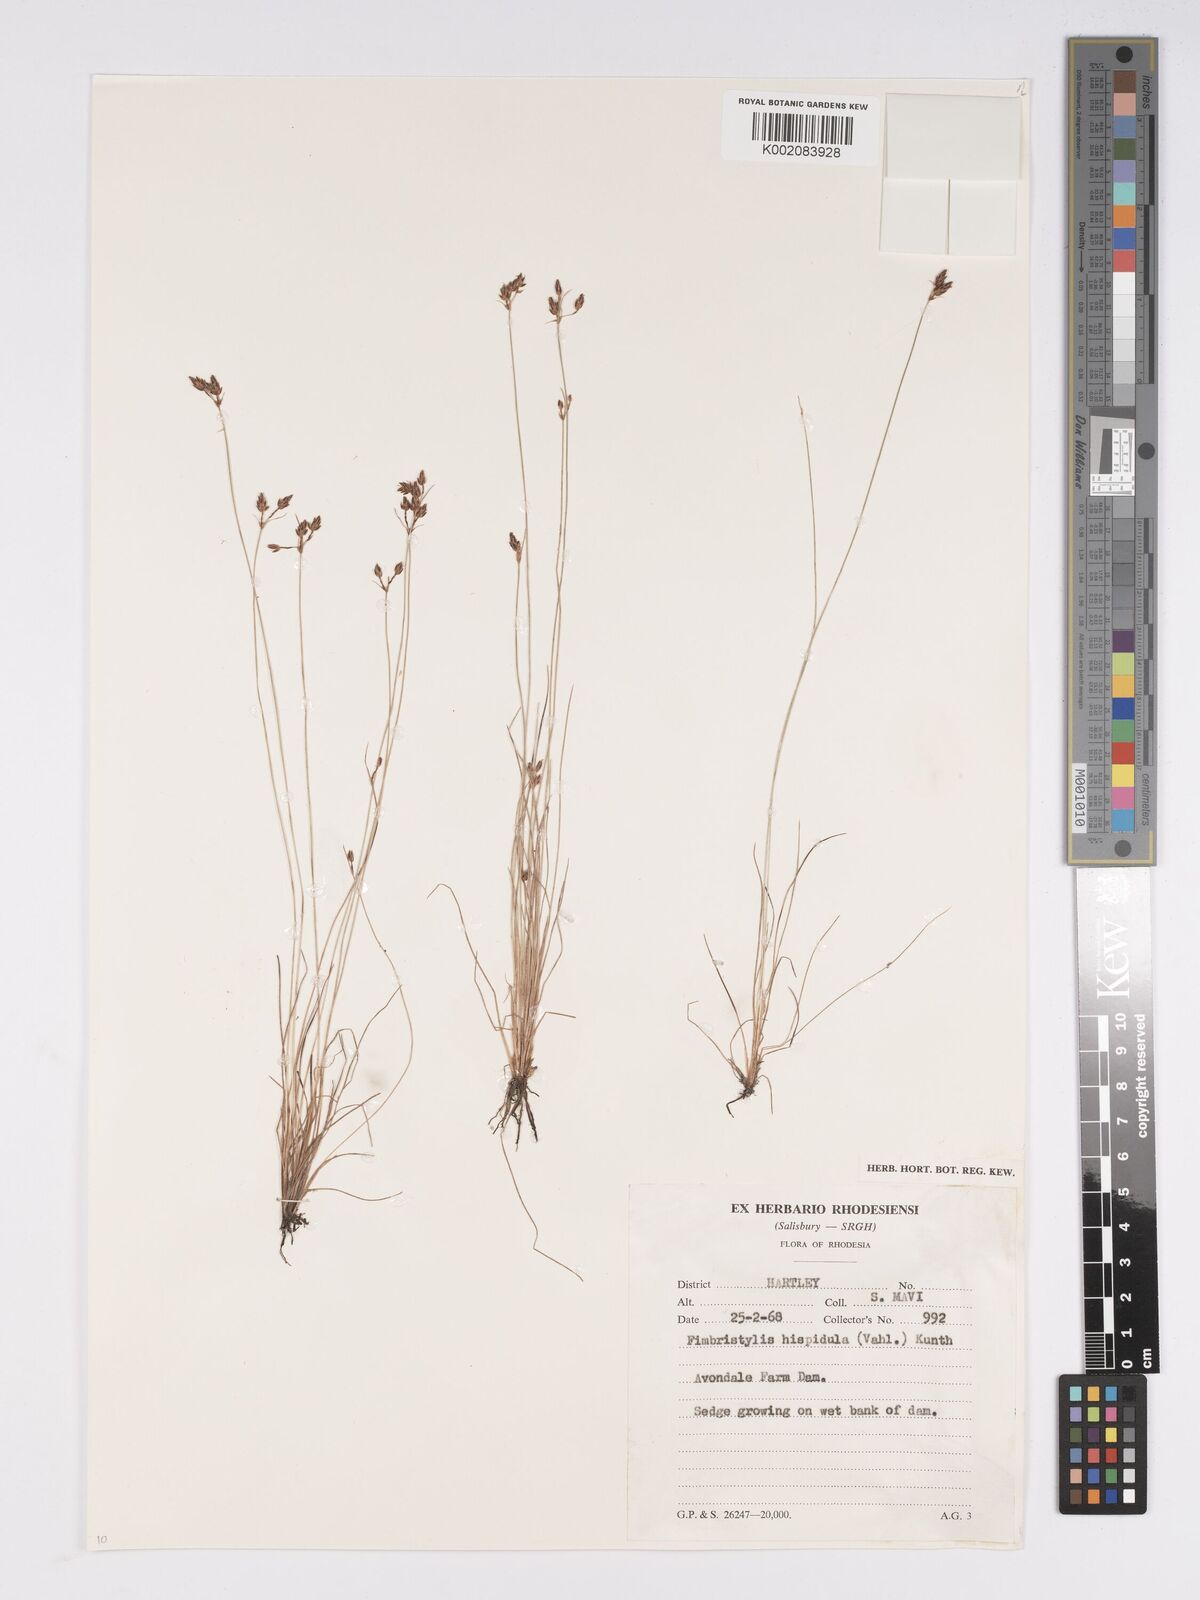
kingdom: Plantae
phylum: Tracheophyta
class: Liliopsida
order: Poales
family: Cyperaceae
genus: Bulbostylis
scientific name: Bulbostylis hispidula
